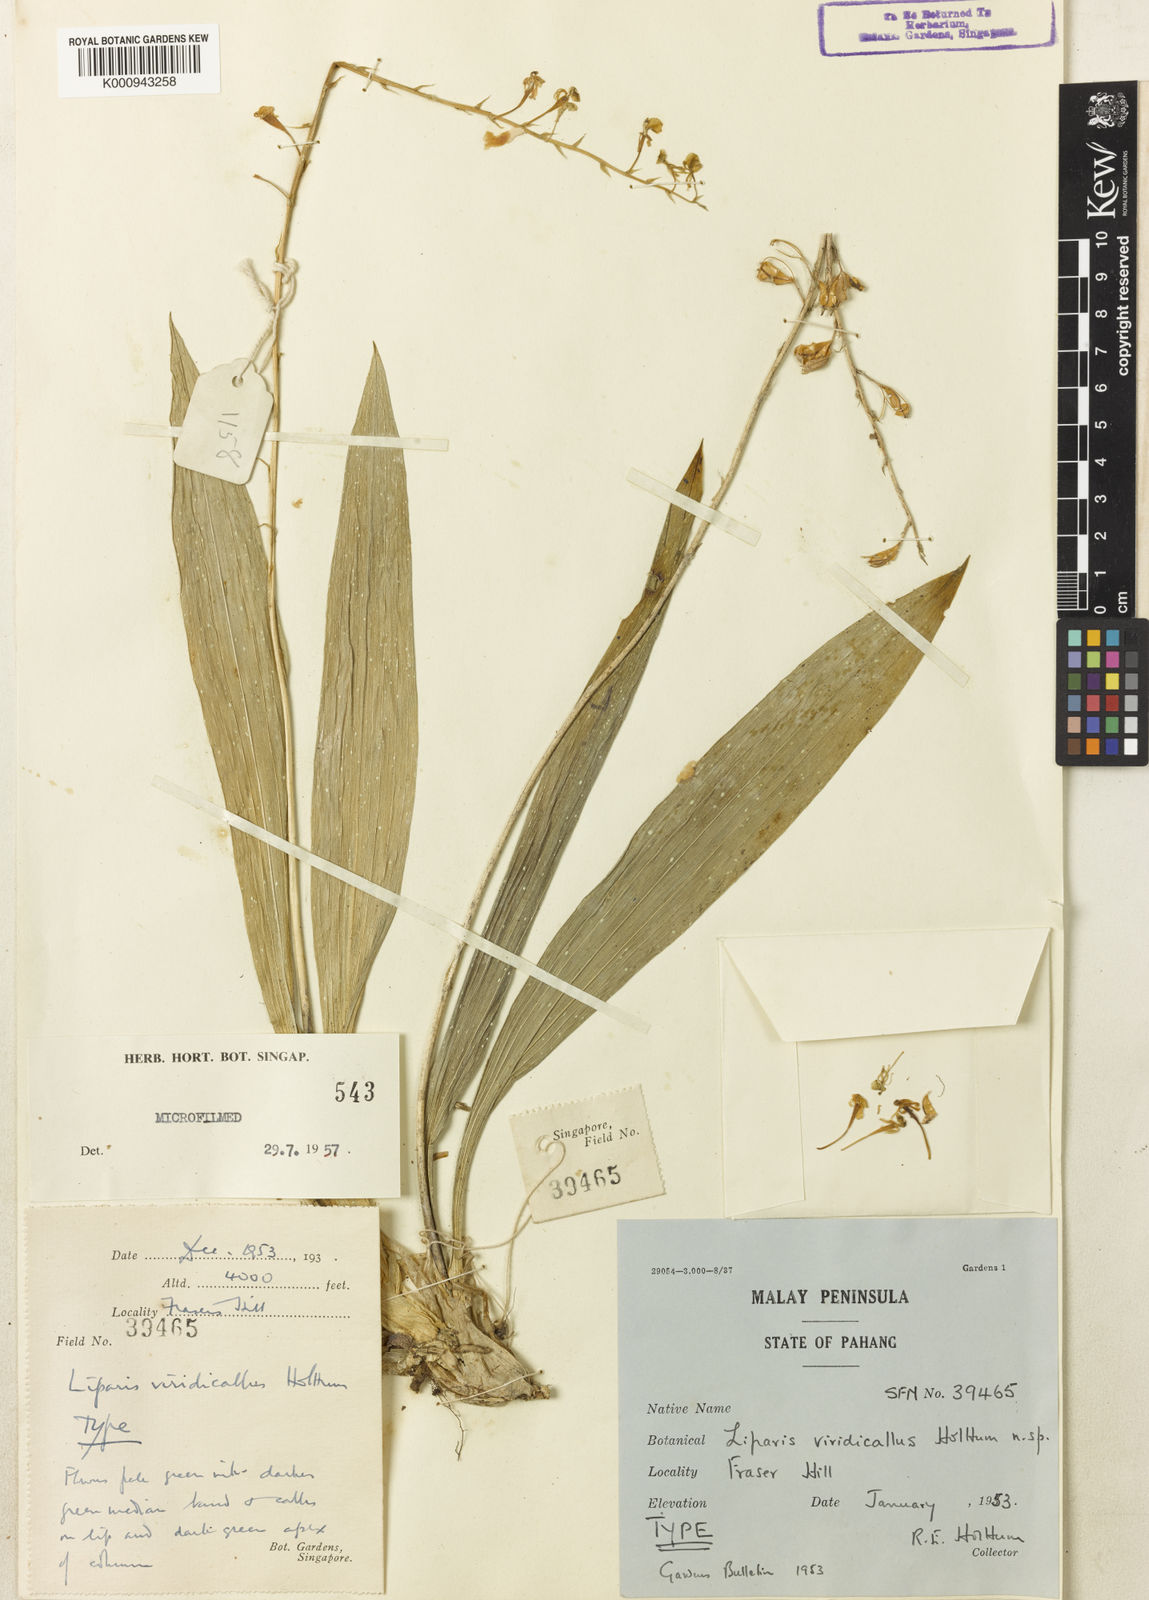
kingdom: Plantae
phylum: Tracheophyta
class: Liliopsida
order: Asparagales
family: Orchidaceae
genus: Liparis
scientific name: Liparis halconensis
